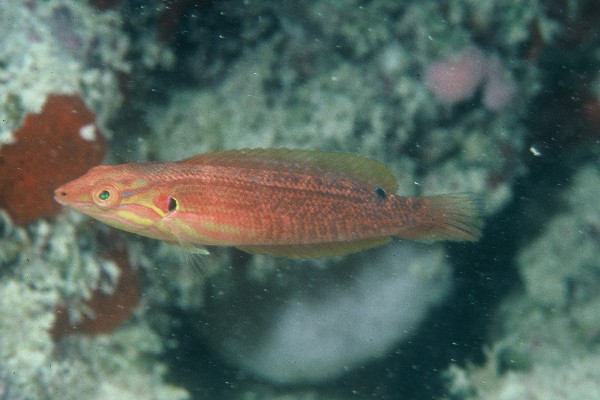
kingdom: Animalia
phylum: Chordata
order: Perciformes
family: Labridae
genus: Coris
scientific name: Coris venusta
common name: Elegant coris
